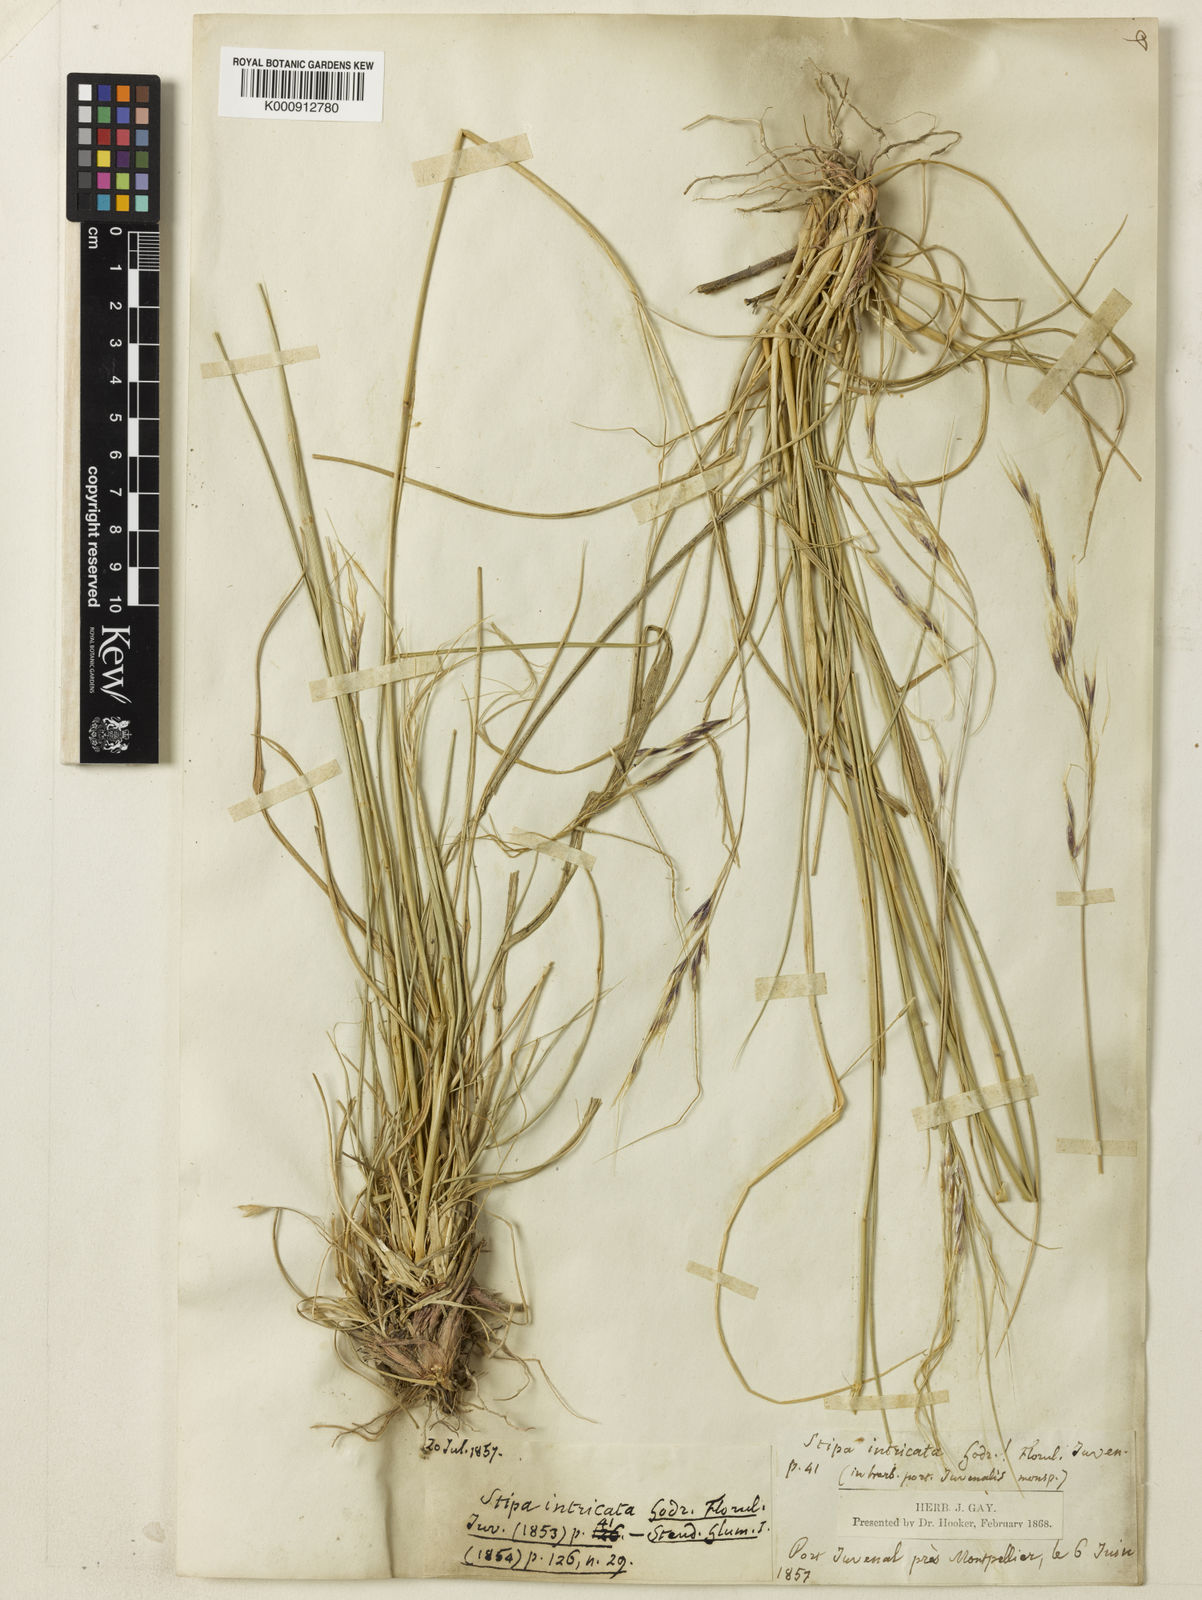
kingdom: Plantae
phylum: Tracheophyta
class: Liliopsida
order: Poales
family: Poaceae
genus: Nassella
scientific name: Nassella neesiana
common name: American needle-grass
